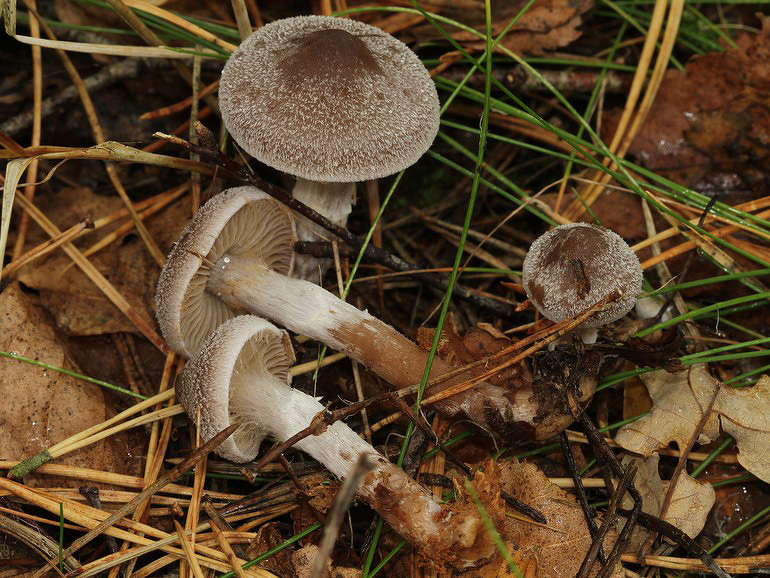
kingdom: Fungi
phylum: Basidiomycota
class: Agaricomycetes
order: Agaricales
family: Cortinariaceae
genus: Cortinarius
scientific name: Cortinarius hemitrichus
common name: hvidfnugget slørhat
